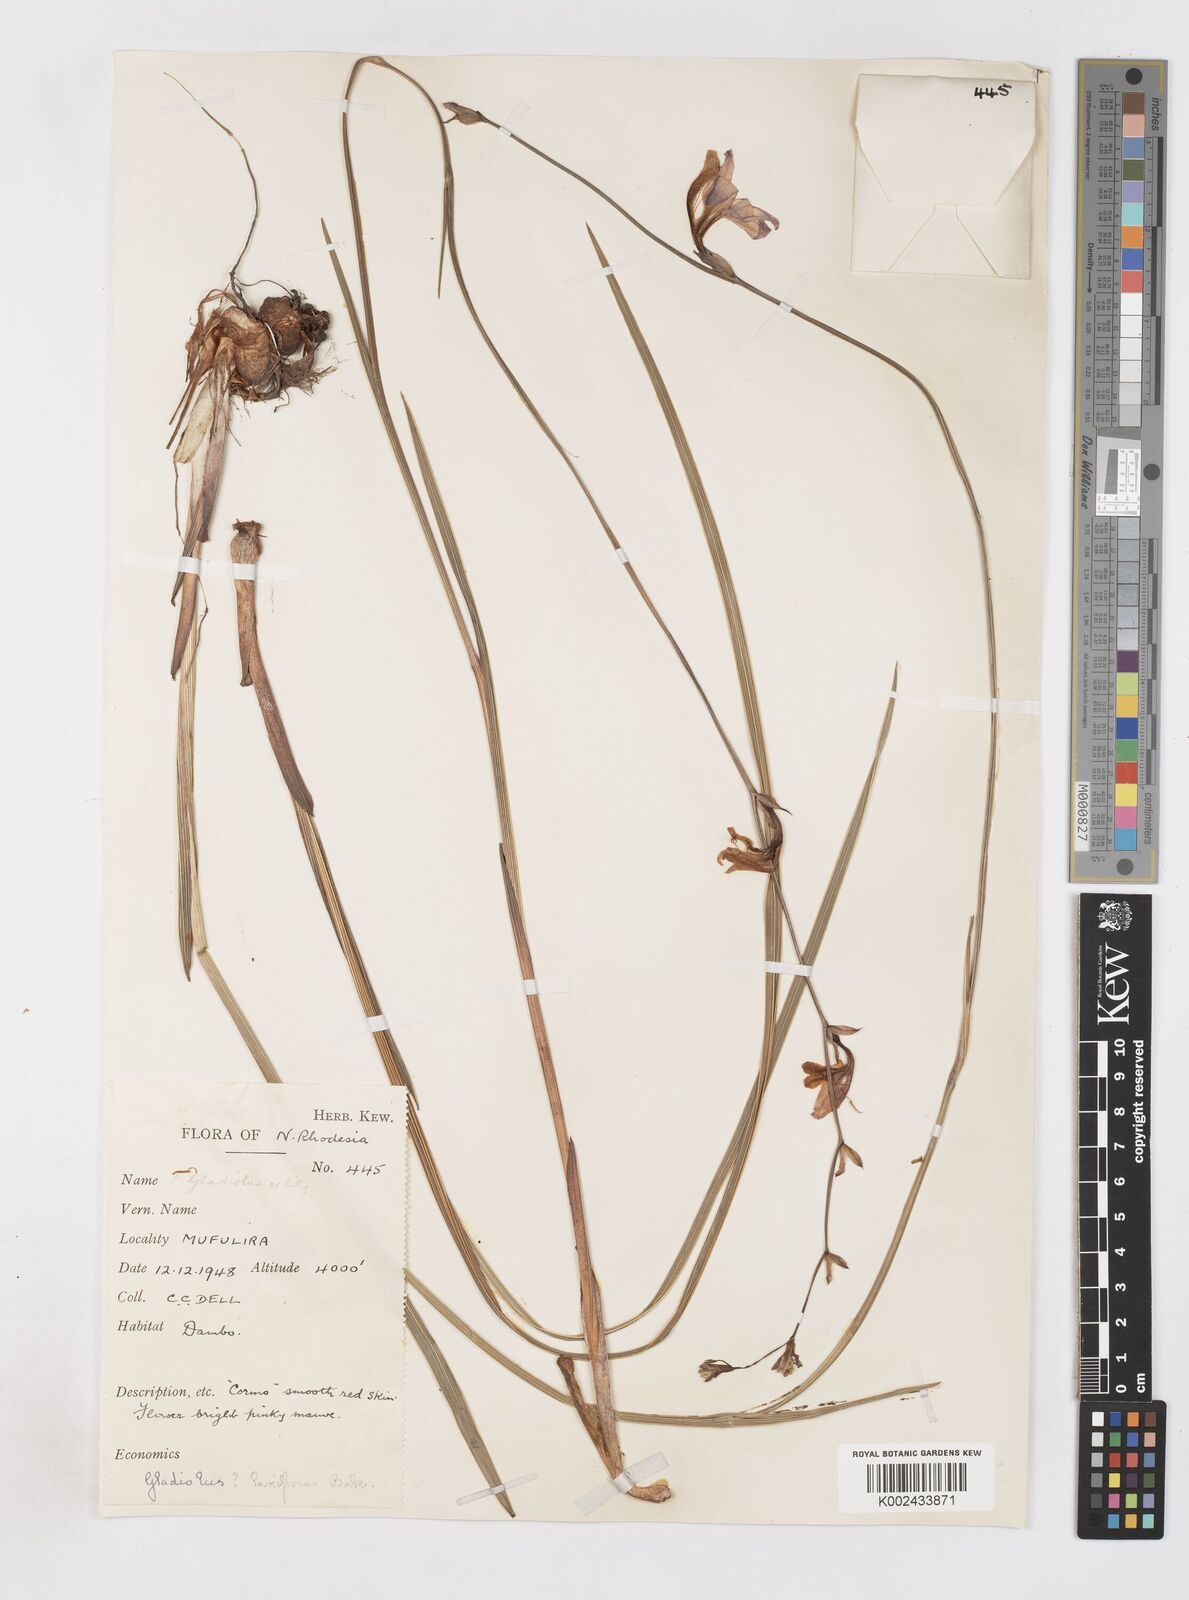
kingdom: Plantae
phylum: Tracheophyta
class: Liliopsida
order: Asparagales
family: Iridaceae
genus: Gladiolus
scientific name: Gladiolus laxiflorus
